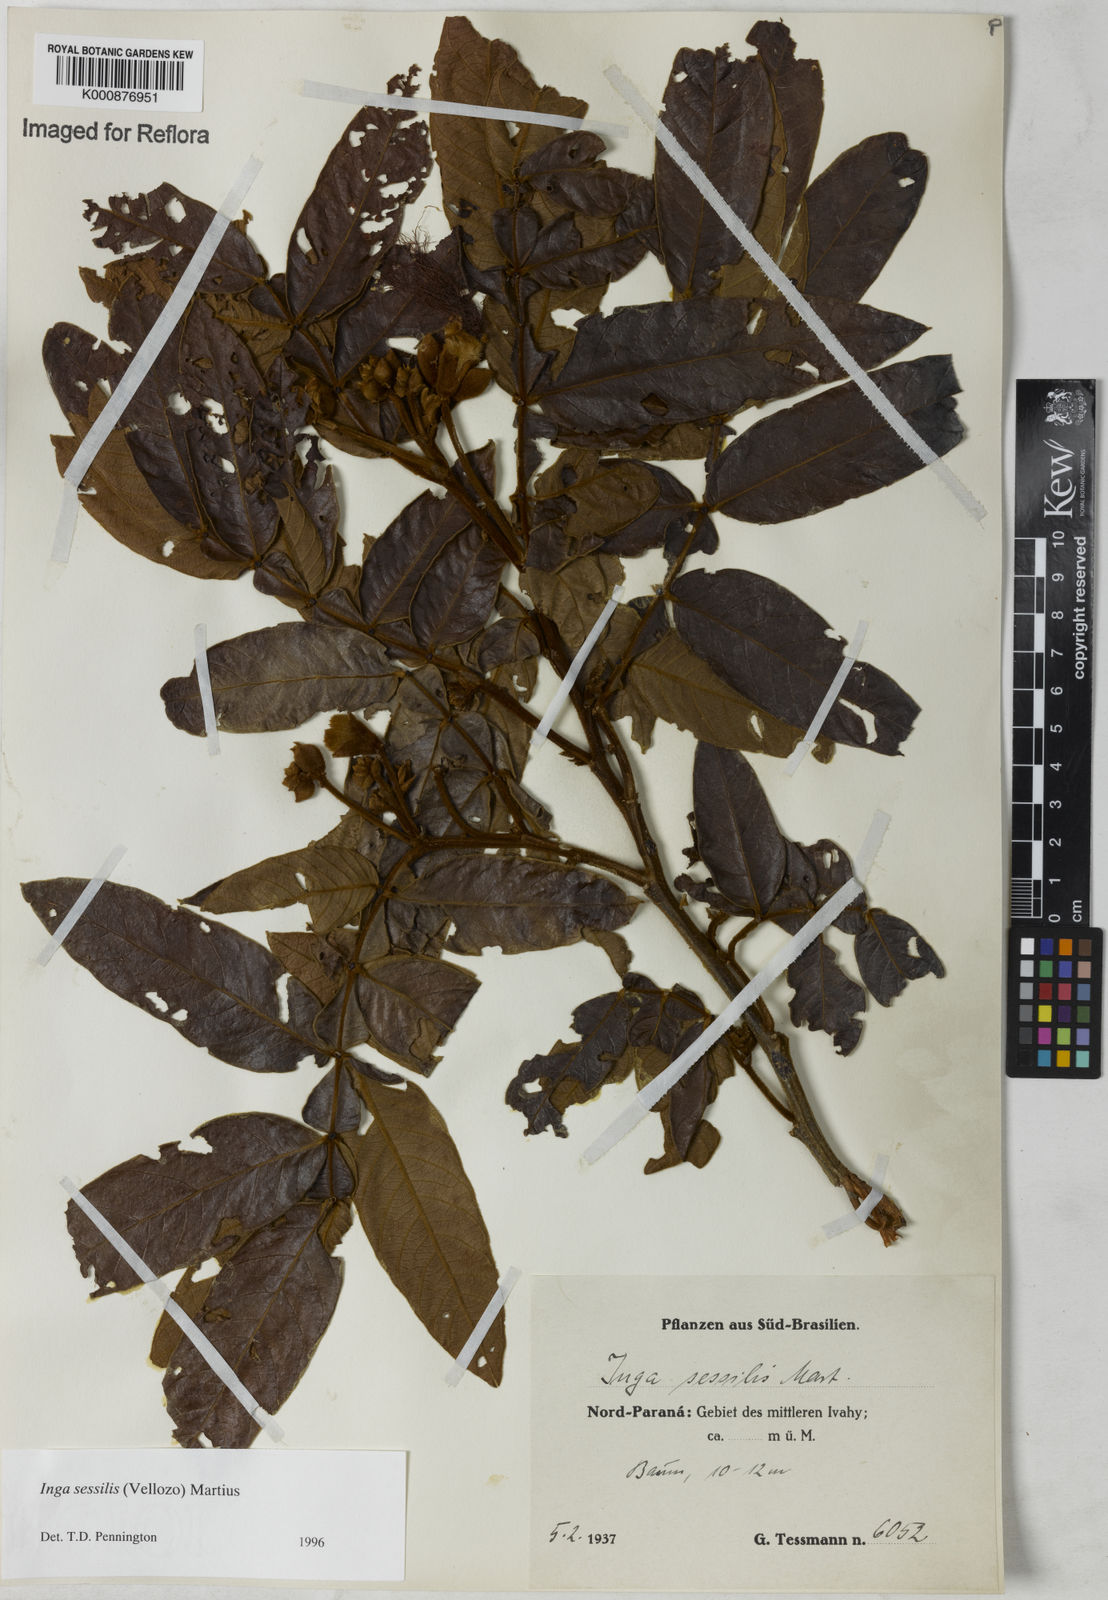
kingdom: Plantae
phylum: Tracheophyta
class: Magnoliopsida
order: Fabales
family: Fabaceae
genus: Inga
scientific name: Inga sessilis
